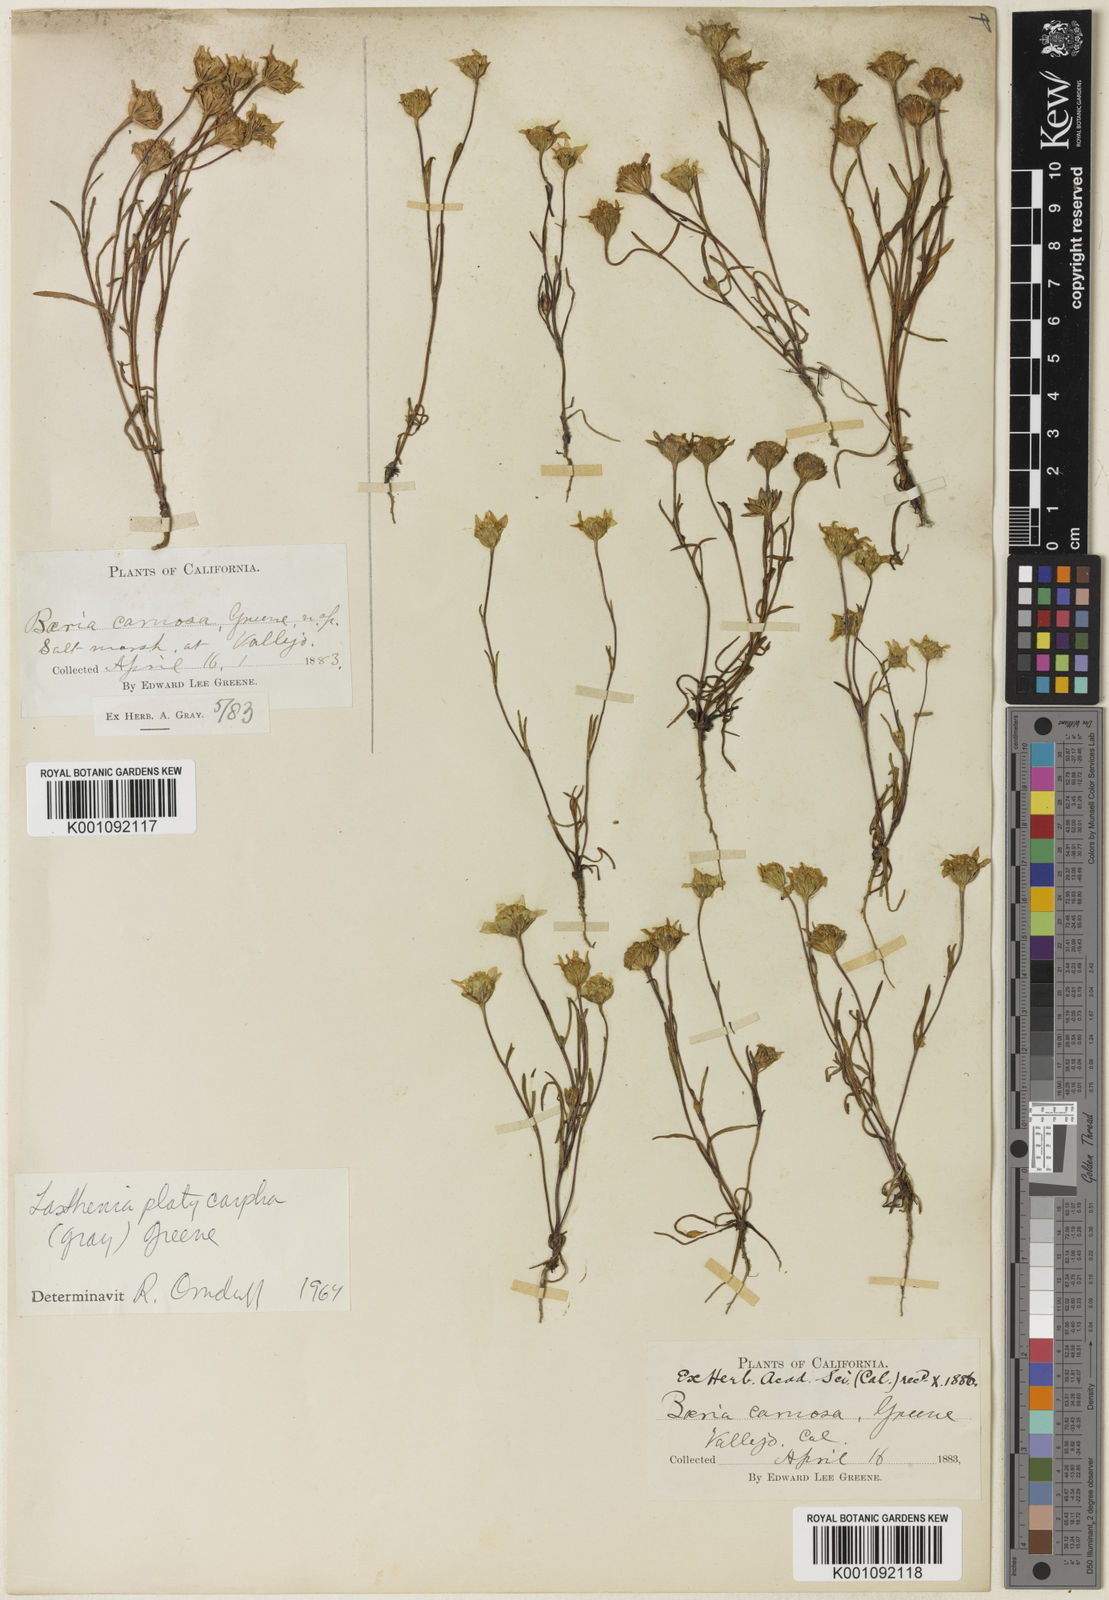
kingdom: Plantae
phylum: Tracheophyta
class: Magnoliopsida
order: Asterales
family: Asteraceae
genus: Lasthenia
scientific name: Lasthenia platycarpha
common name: Alkali goldfields
